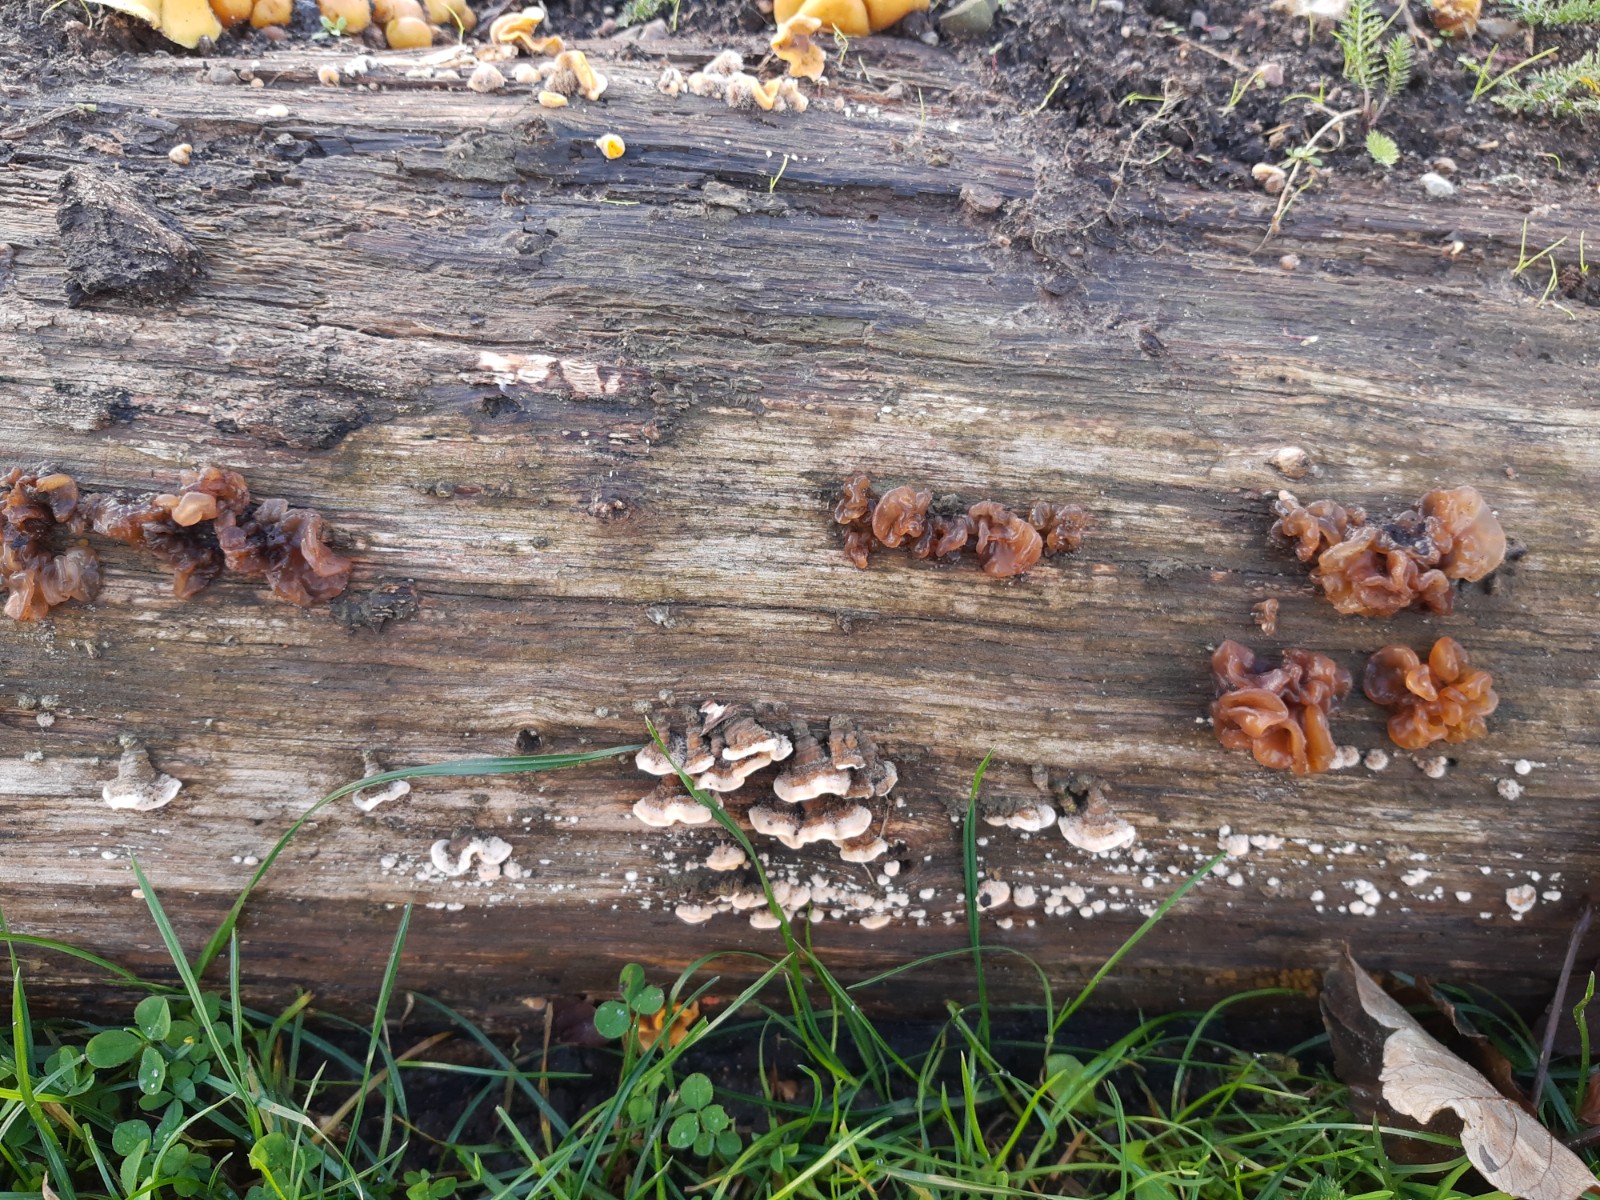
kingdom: Fungi
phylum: Basidiomycota
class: Tremellomycetes
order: Tremellales
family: Tremellaceae
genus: Phaeotremella
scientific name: Phaeotremella frondosa
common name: kæmpe-bævresvamp
